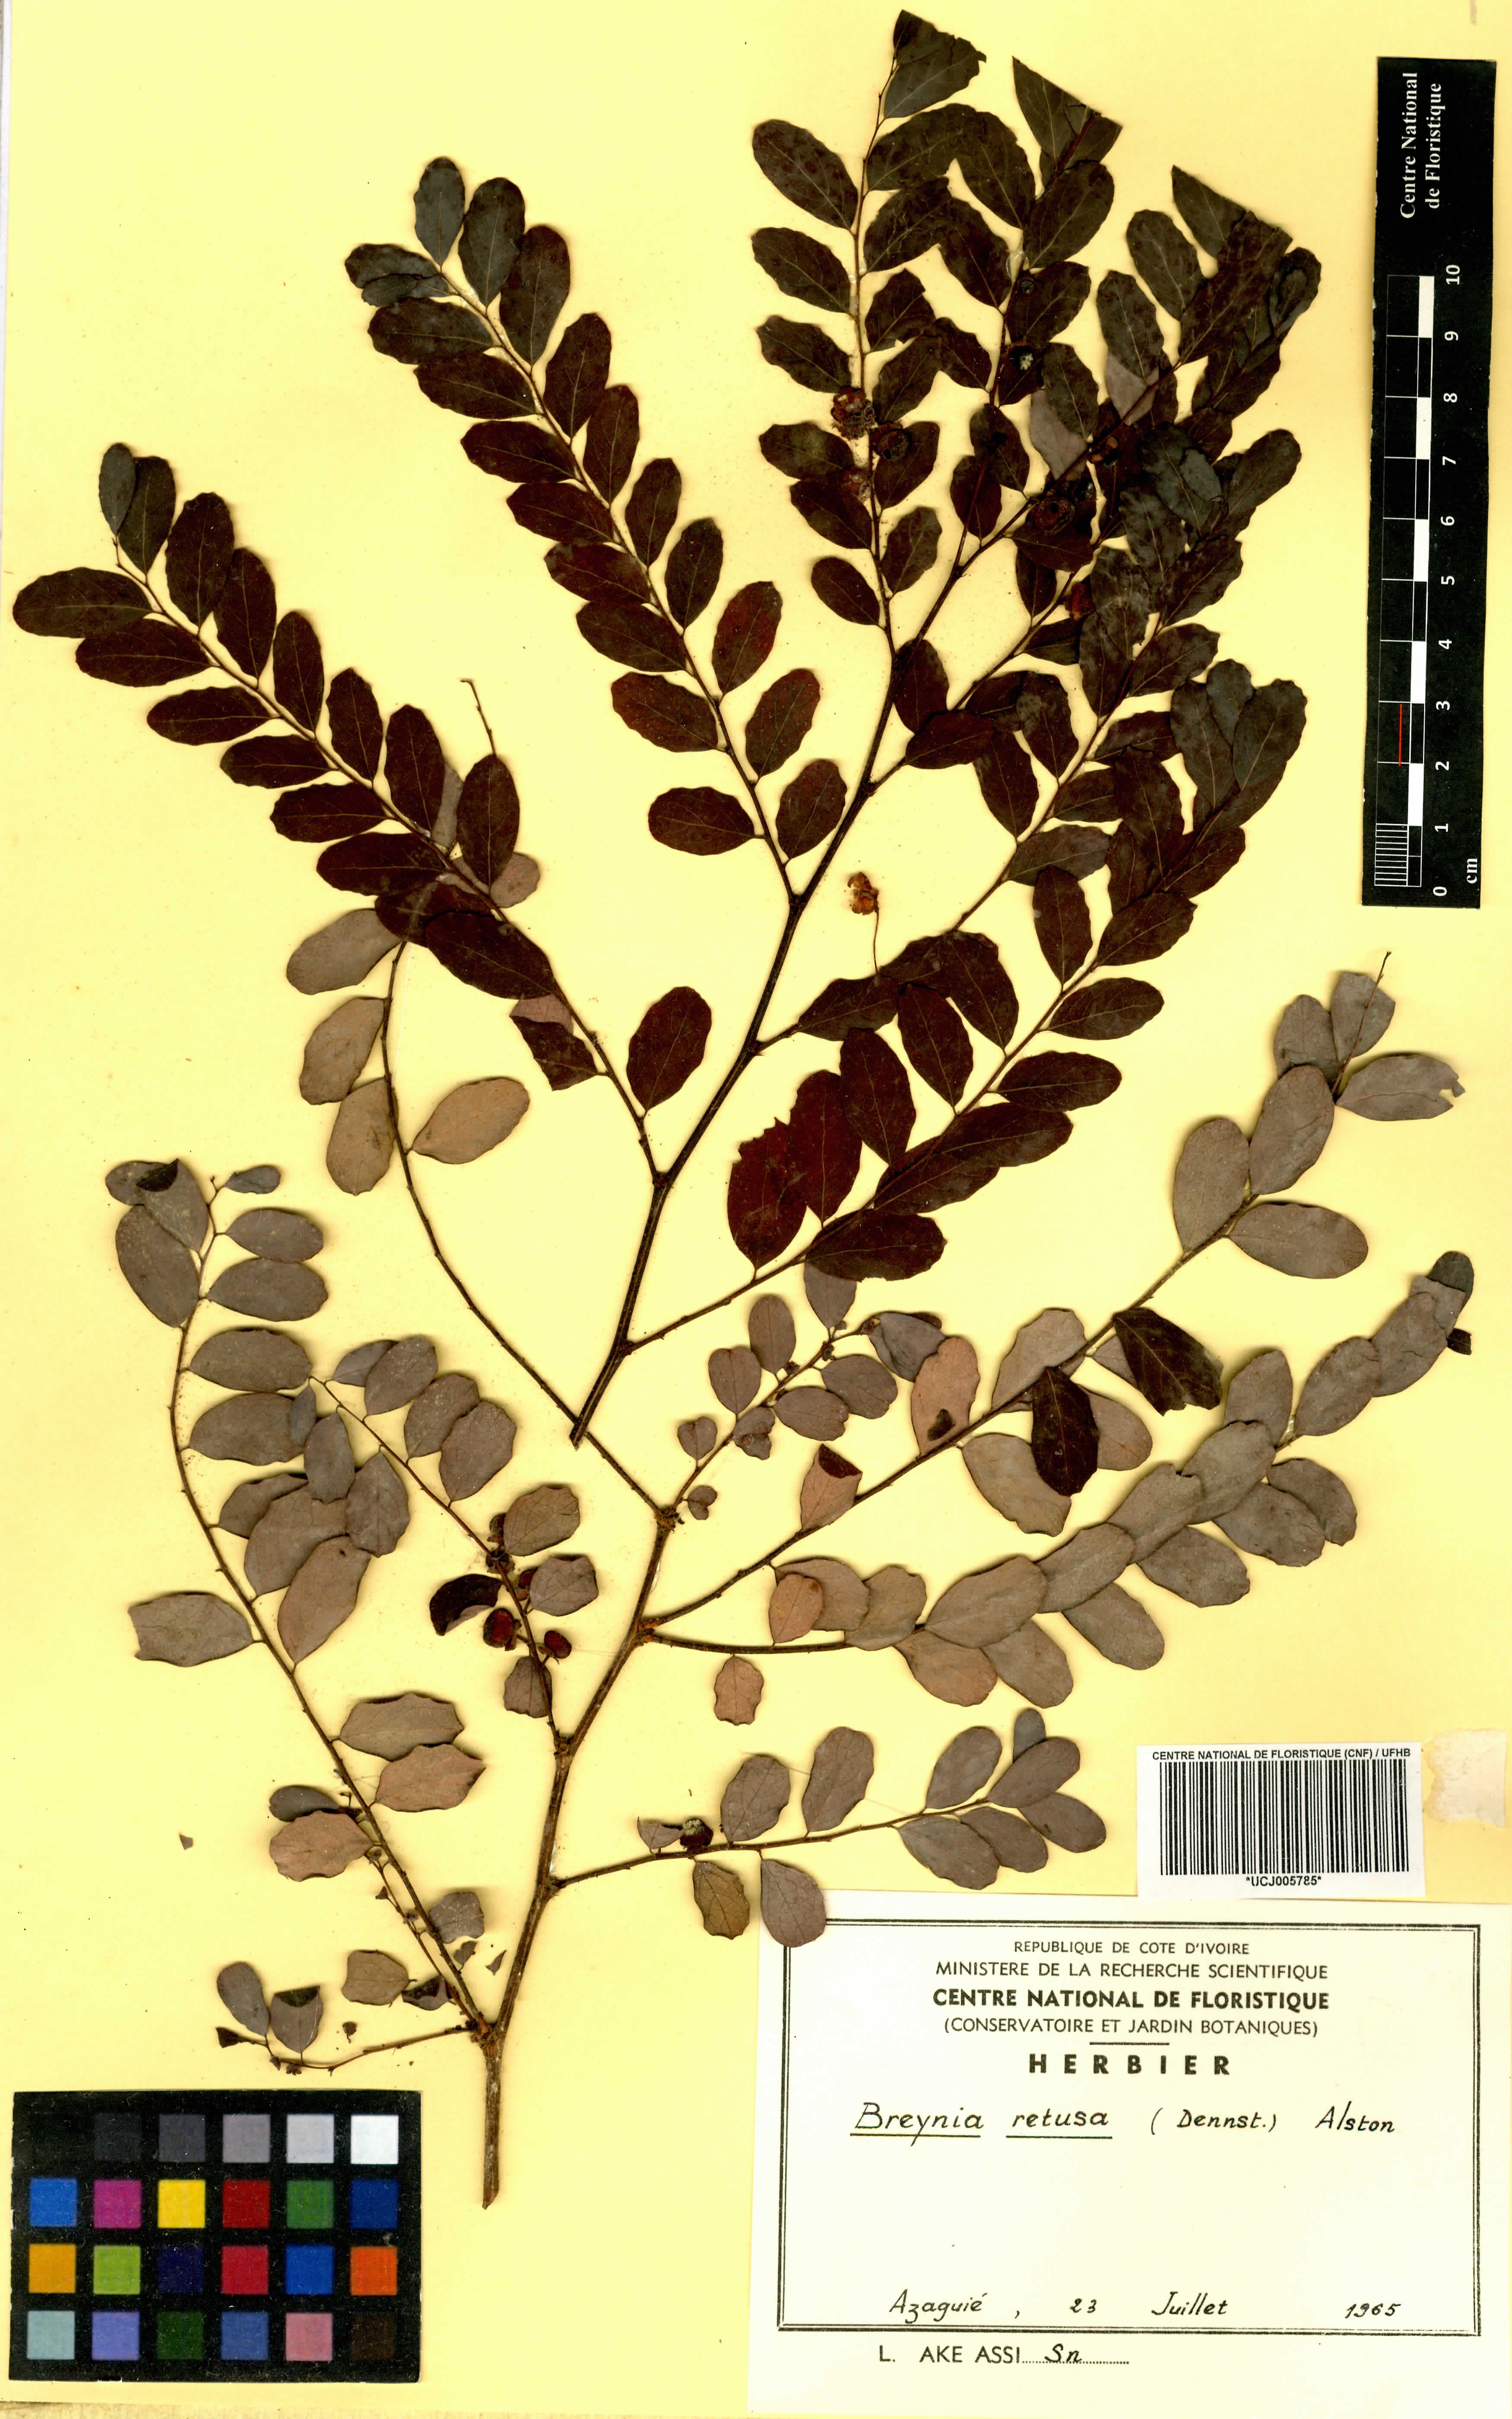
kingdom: Plantae
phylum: Tracheophyta
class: Magnoliopsida
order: Malpighiales
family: Phyllanthaceae
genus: Breynia
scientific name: Breynia retusa
